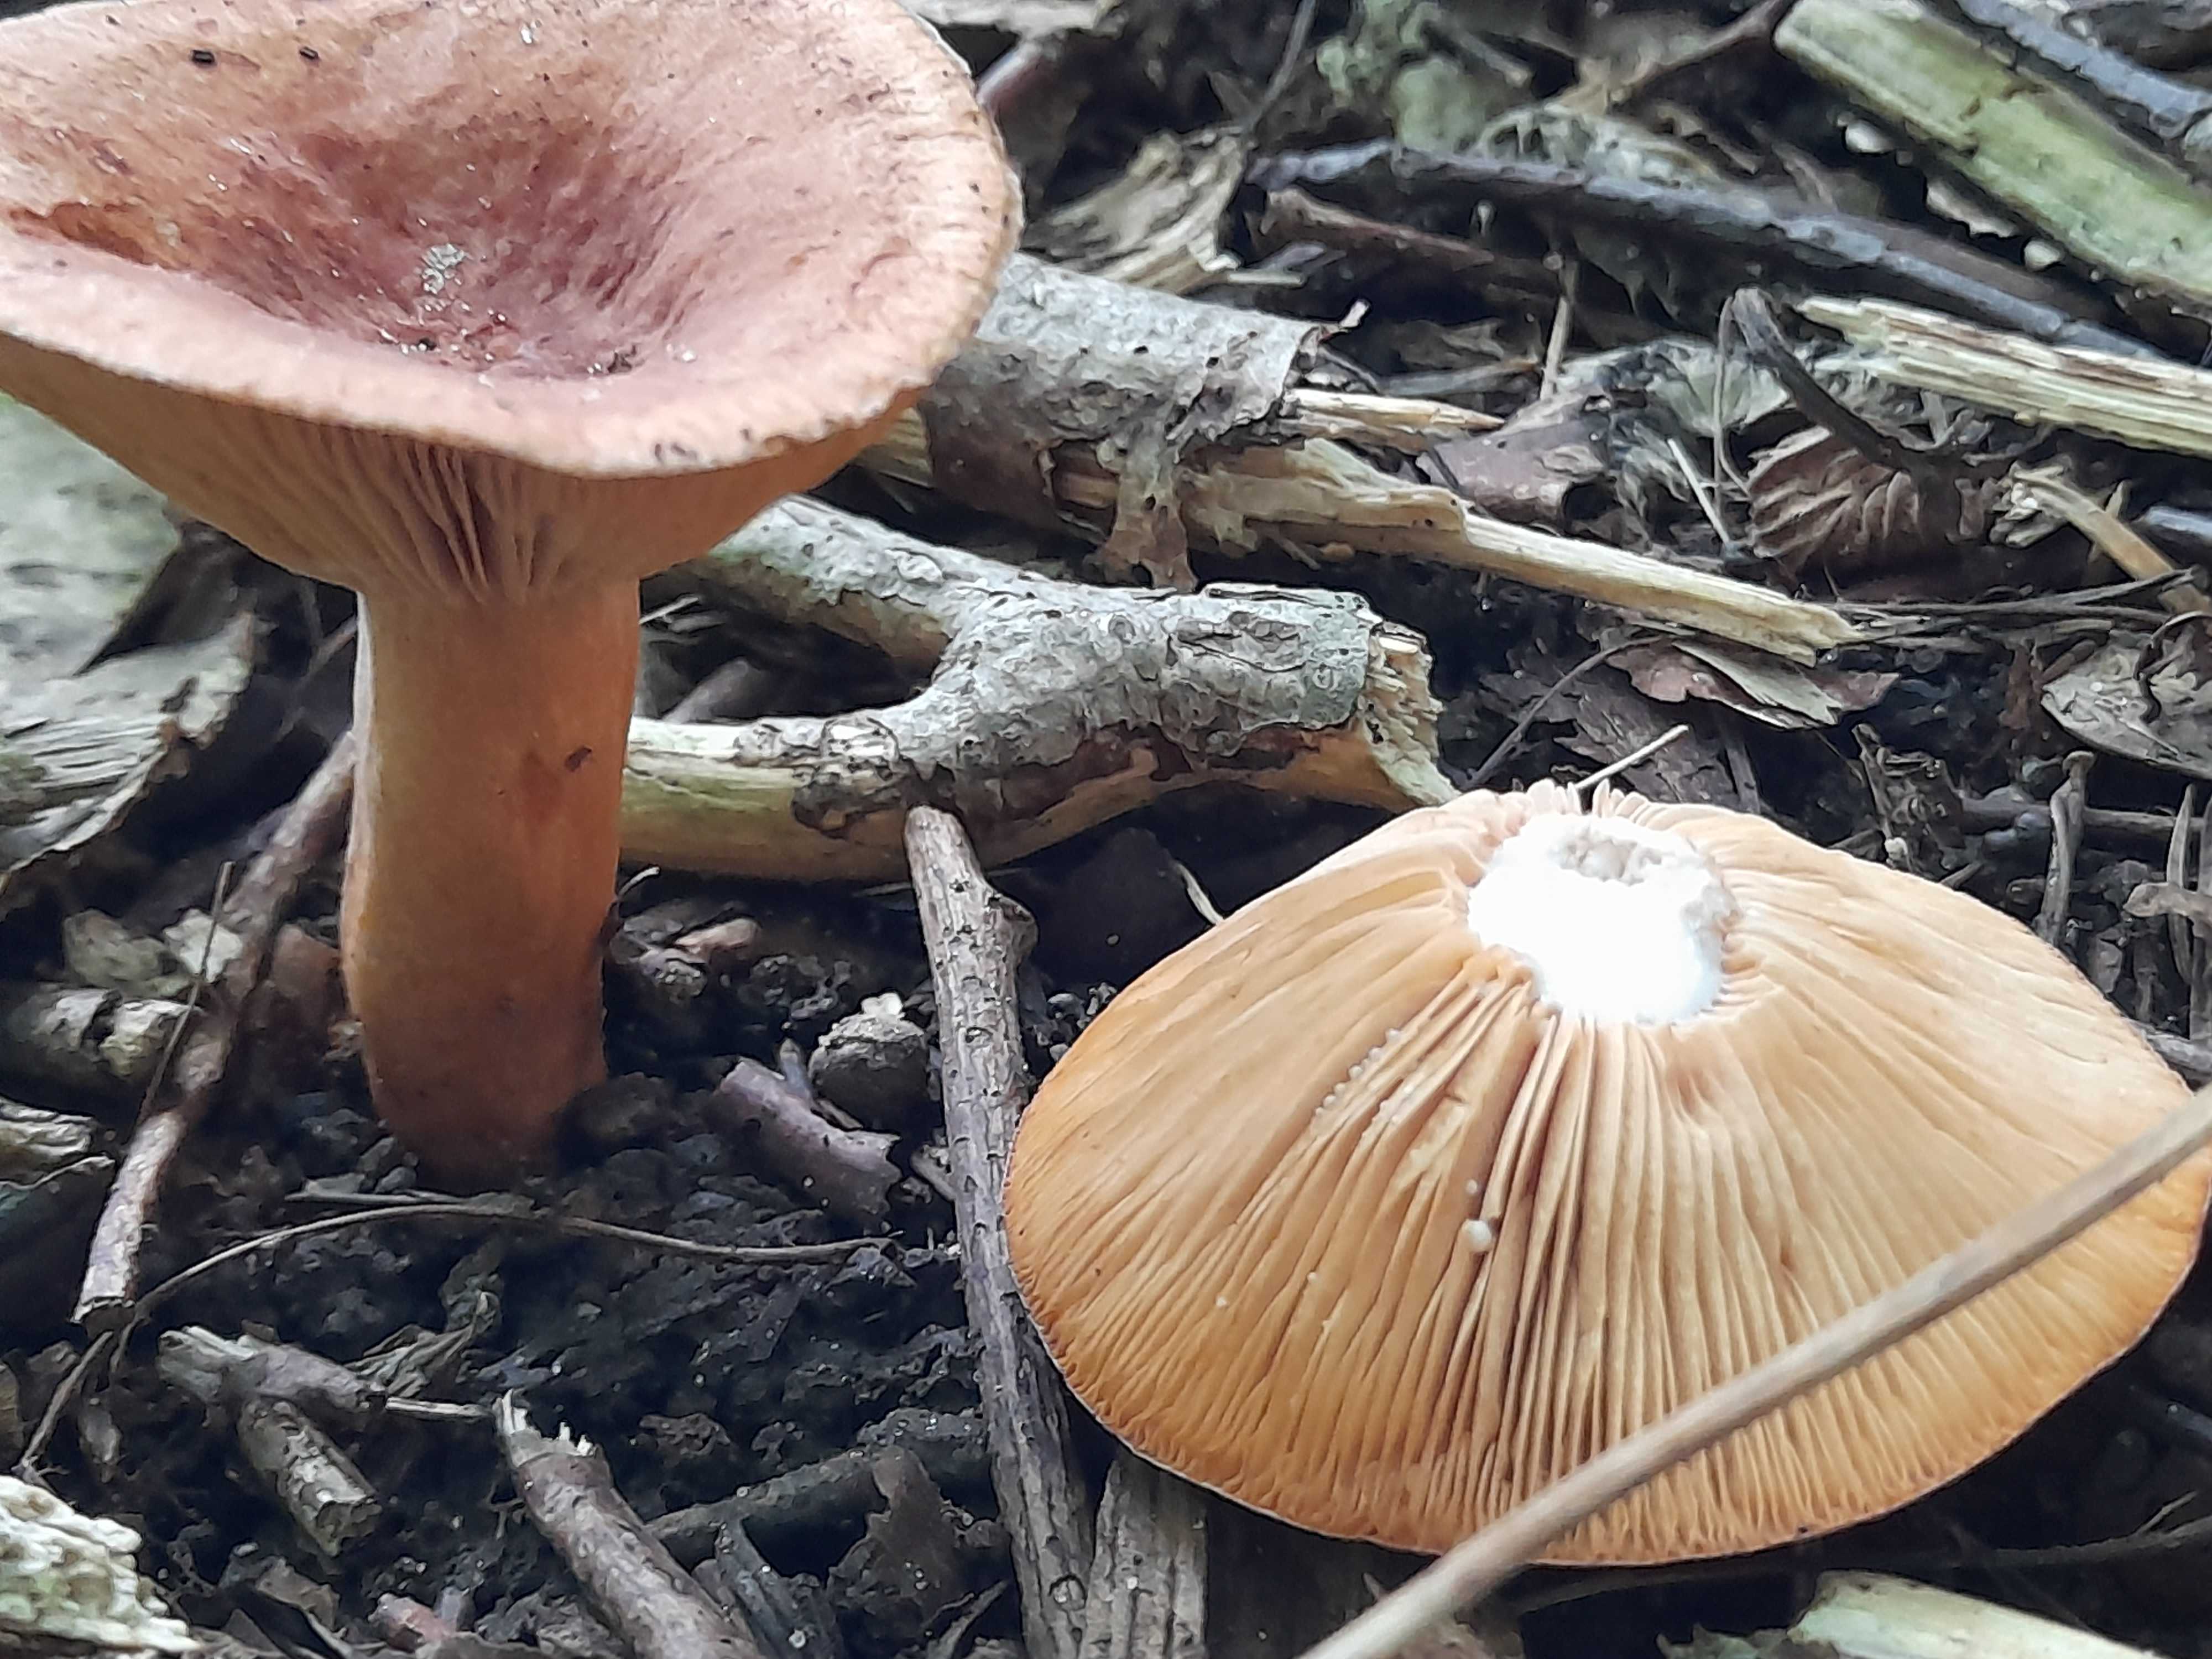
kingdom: Fungi
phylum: Basidiomycota
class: Agaricomycetes
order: Russulales
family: Russulaceae
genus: Lactarius
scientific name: Lactarius
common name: mælkehat
